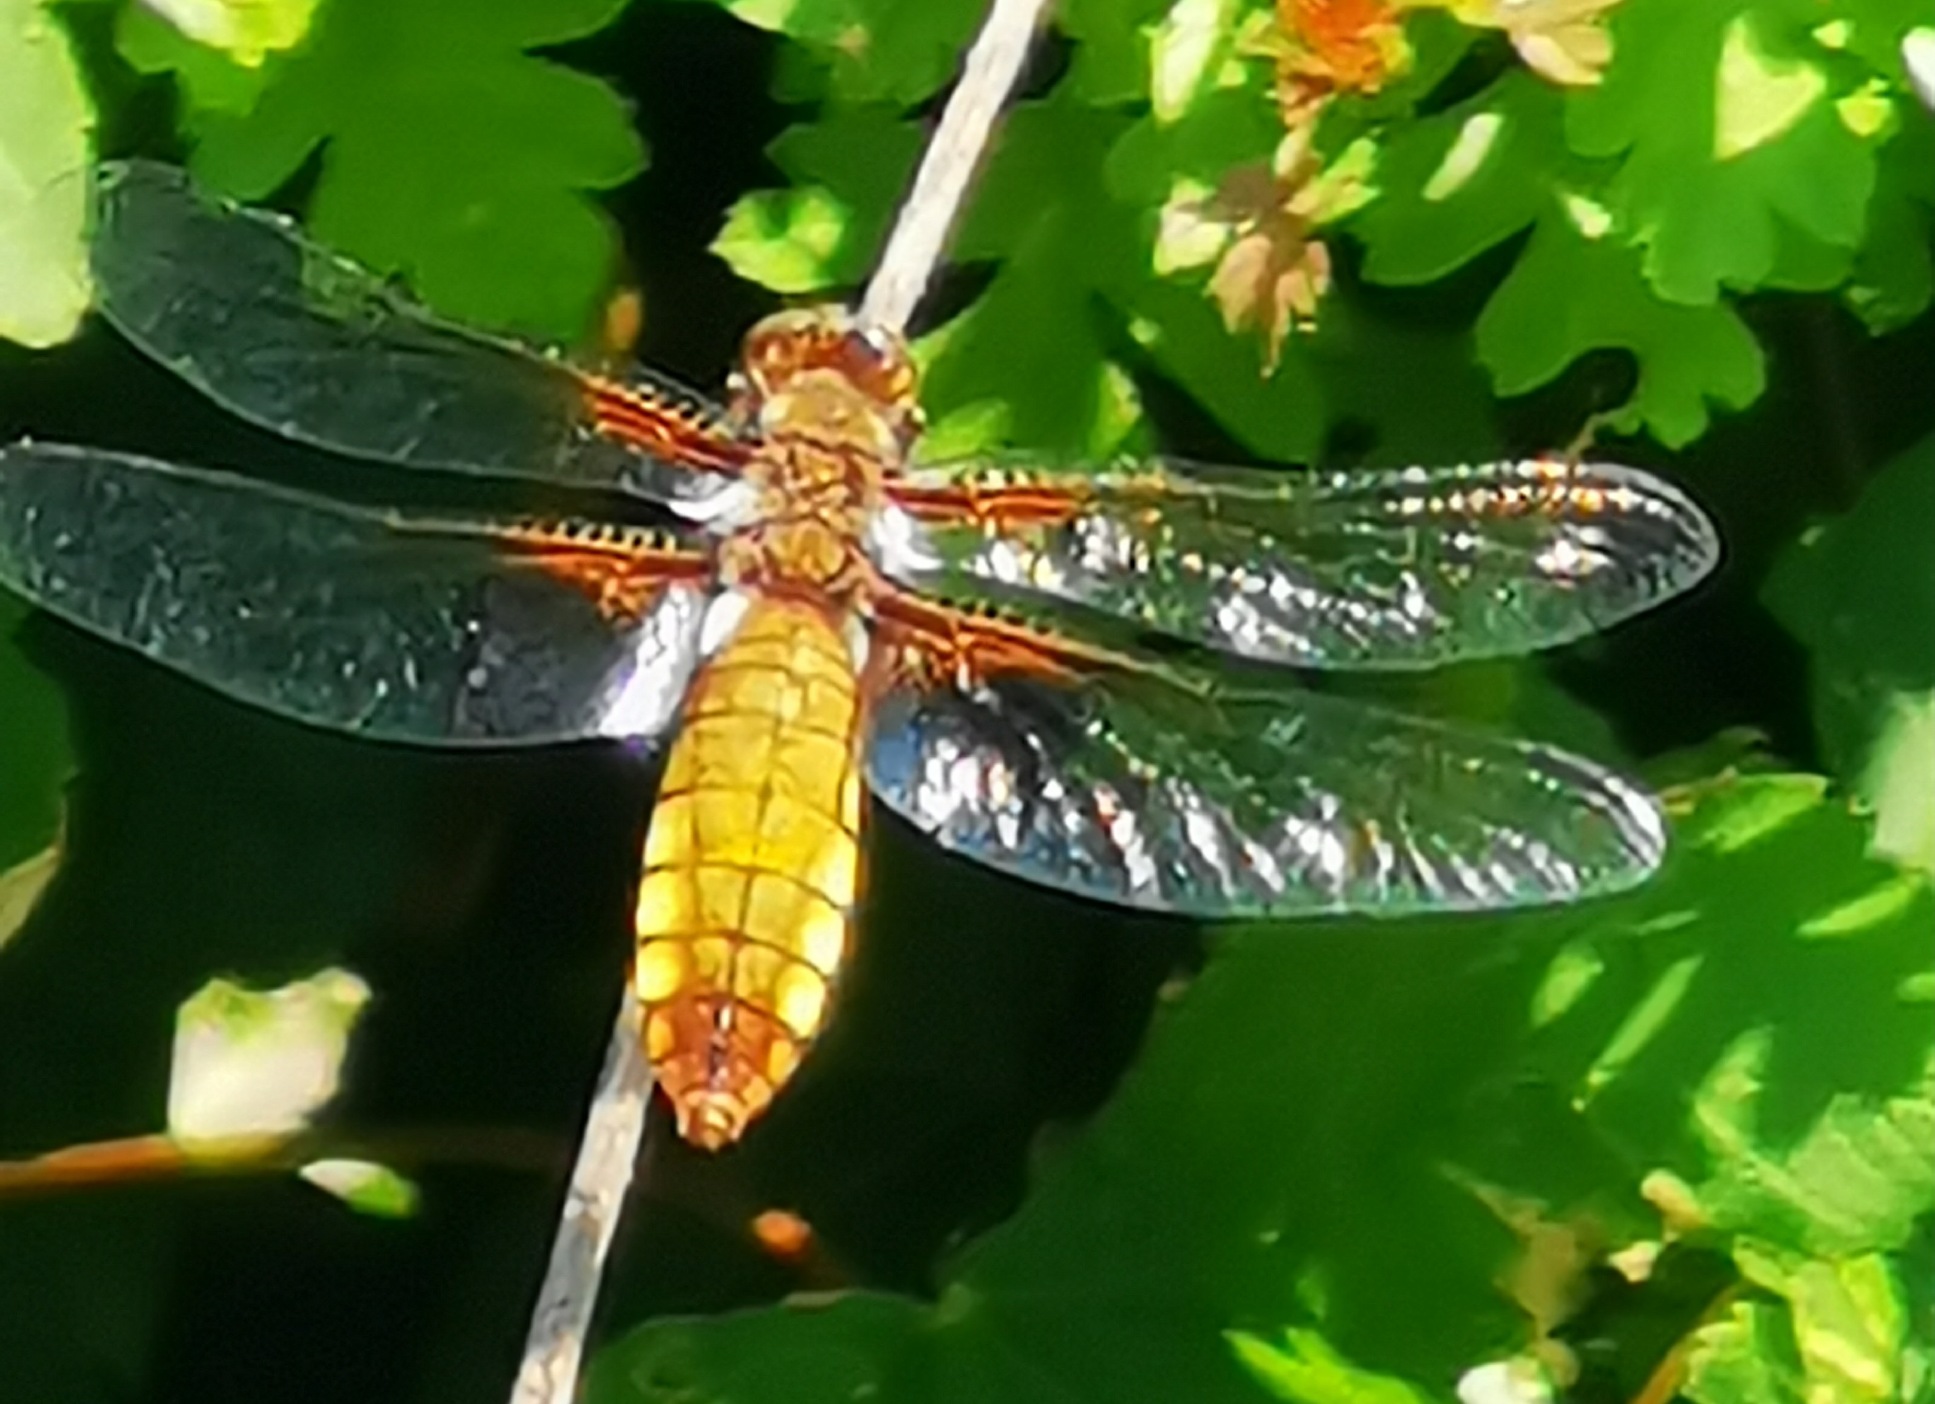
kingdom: Animalia
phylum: Arthropoda
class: Insecta
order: Odonata
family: Libellulidae
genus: Libellula
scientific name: Libellula depressa
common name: Blå libel
